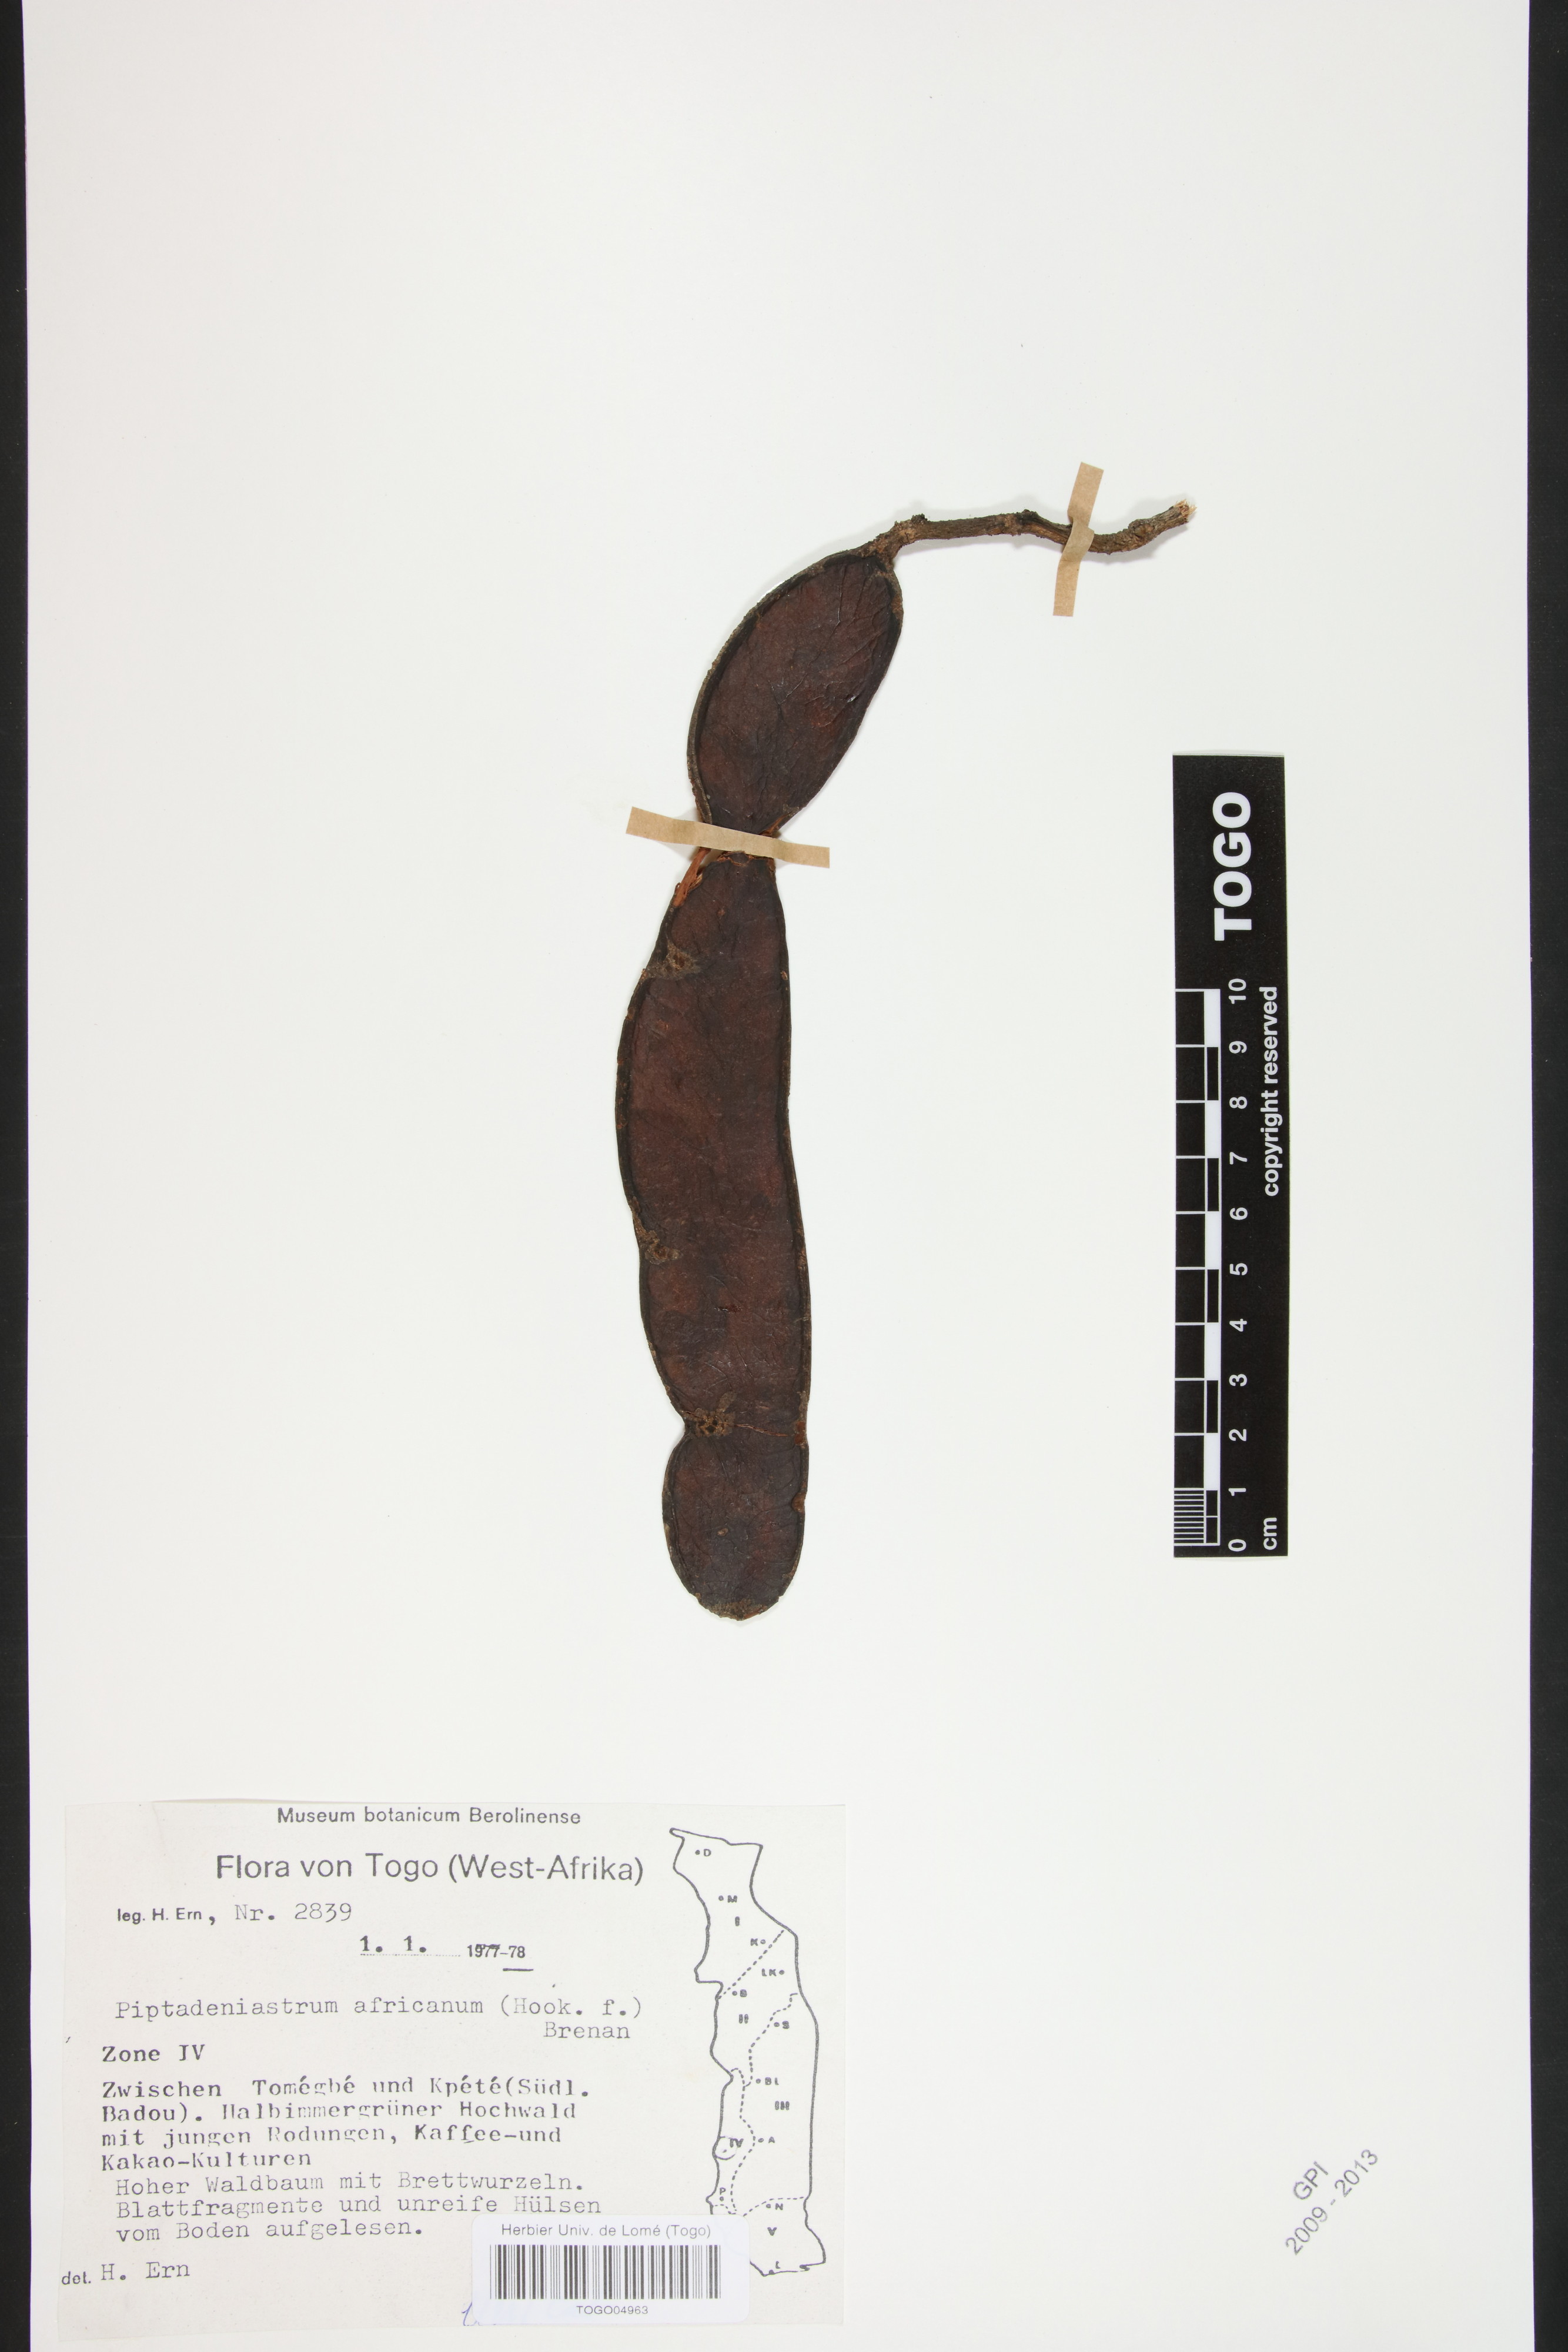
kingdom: Plantae
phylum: Tracheophyta
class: Magnoliopsida
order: Fabales
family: Fabaceae
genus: Piptadeniastrum
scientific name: Piptadeniastrum africanum
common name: African greenheart
